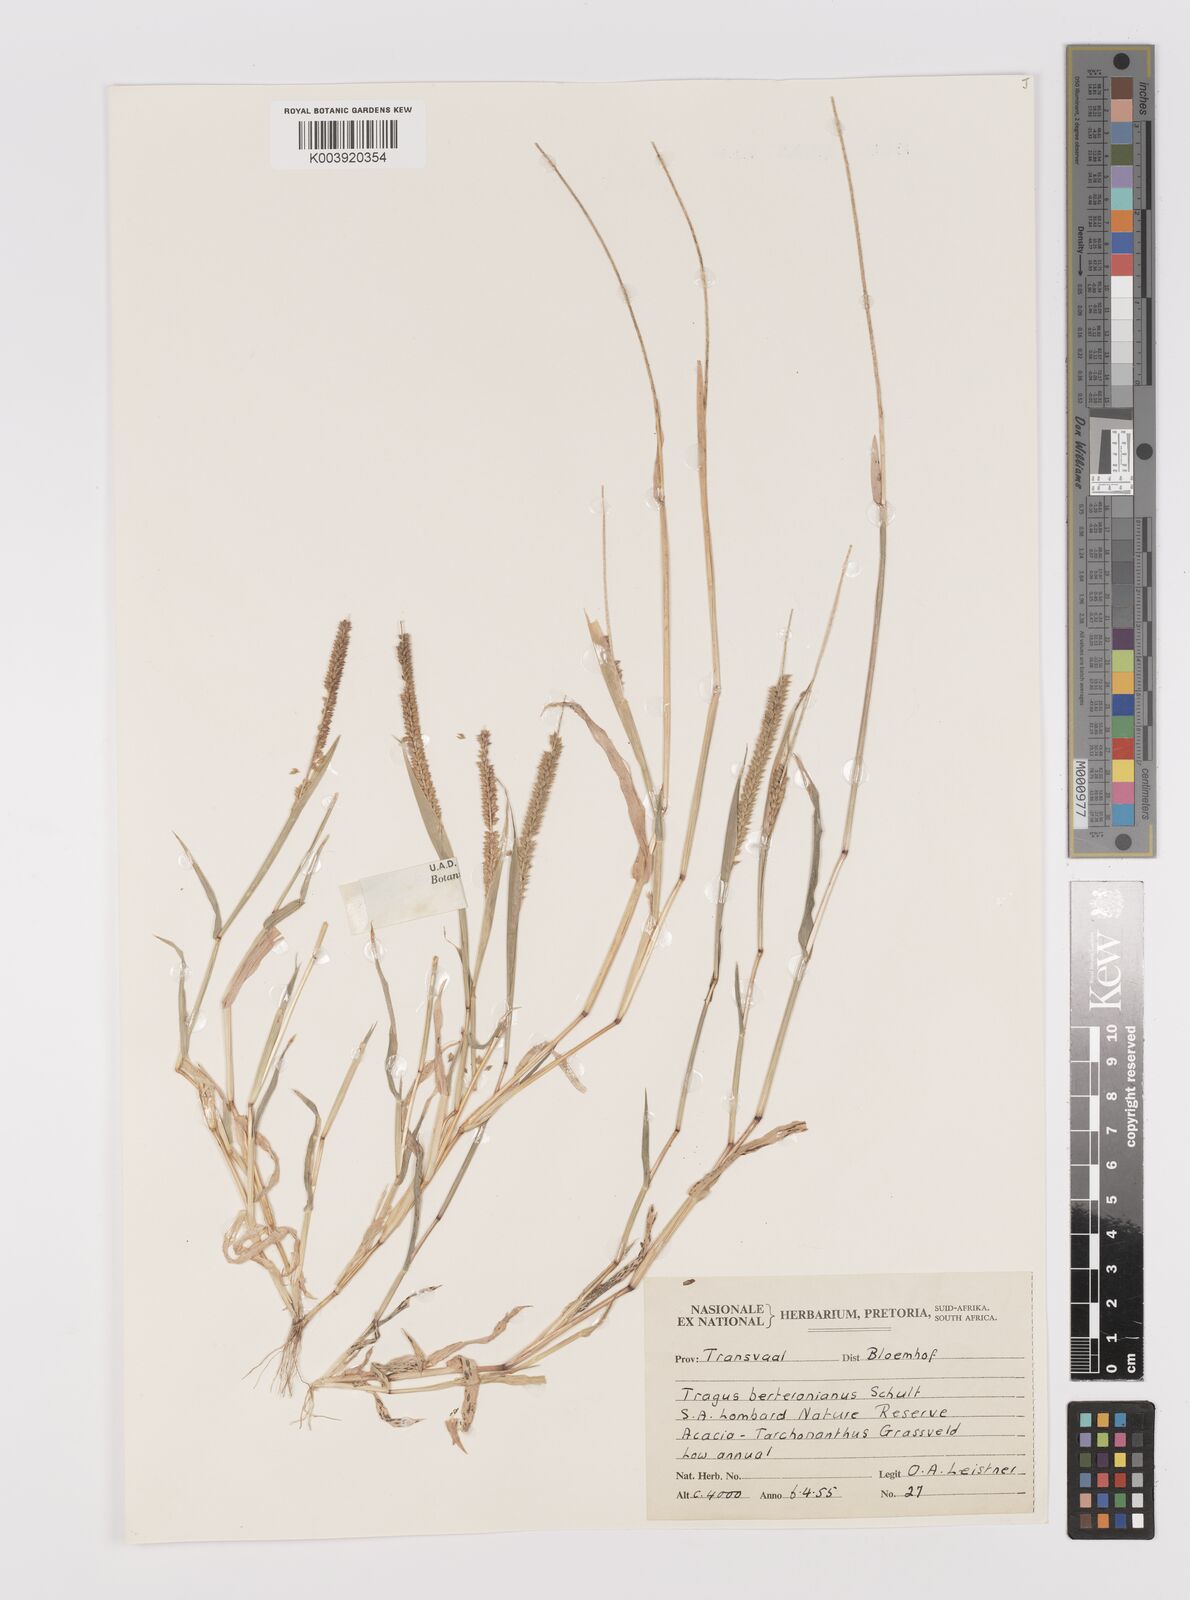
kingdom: Plantae
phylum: Tracheophyta
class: Liliopsida
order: Poales
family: Poaceae
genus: Tragus
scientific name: Tragus berteronianus
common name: African bur-grass
